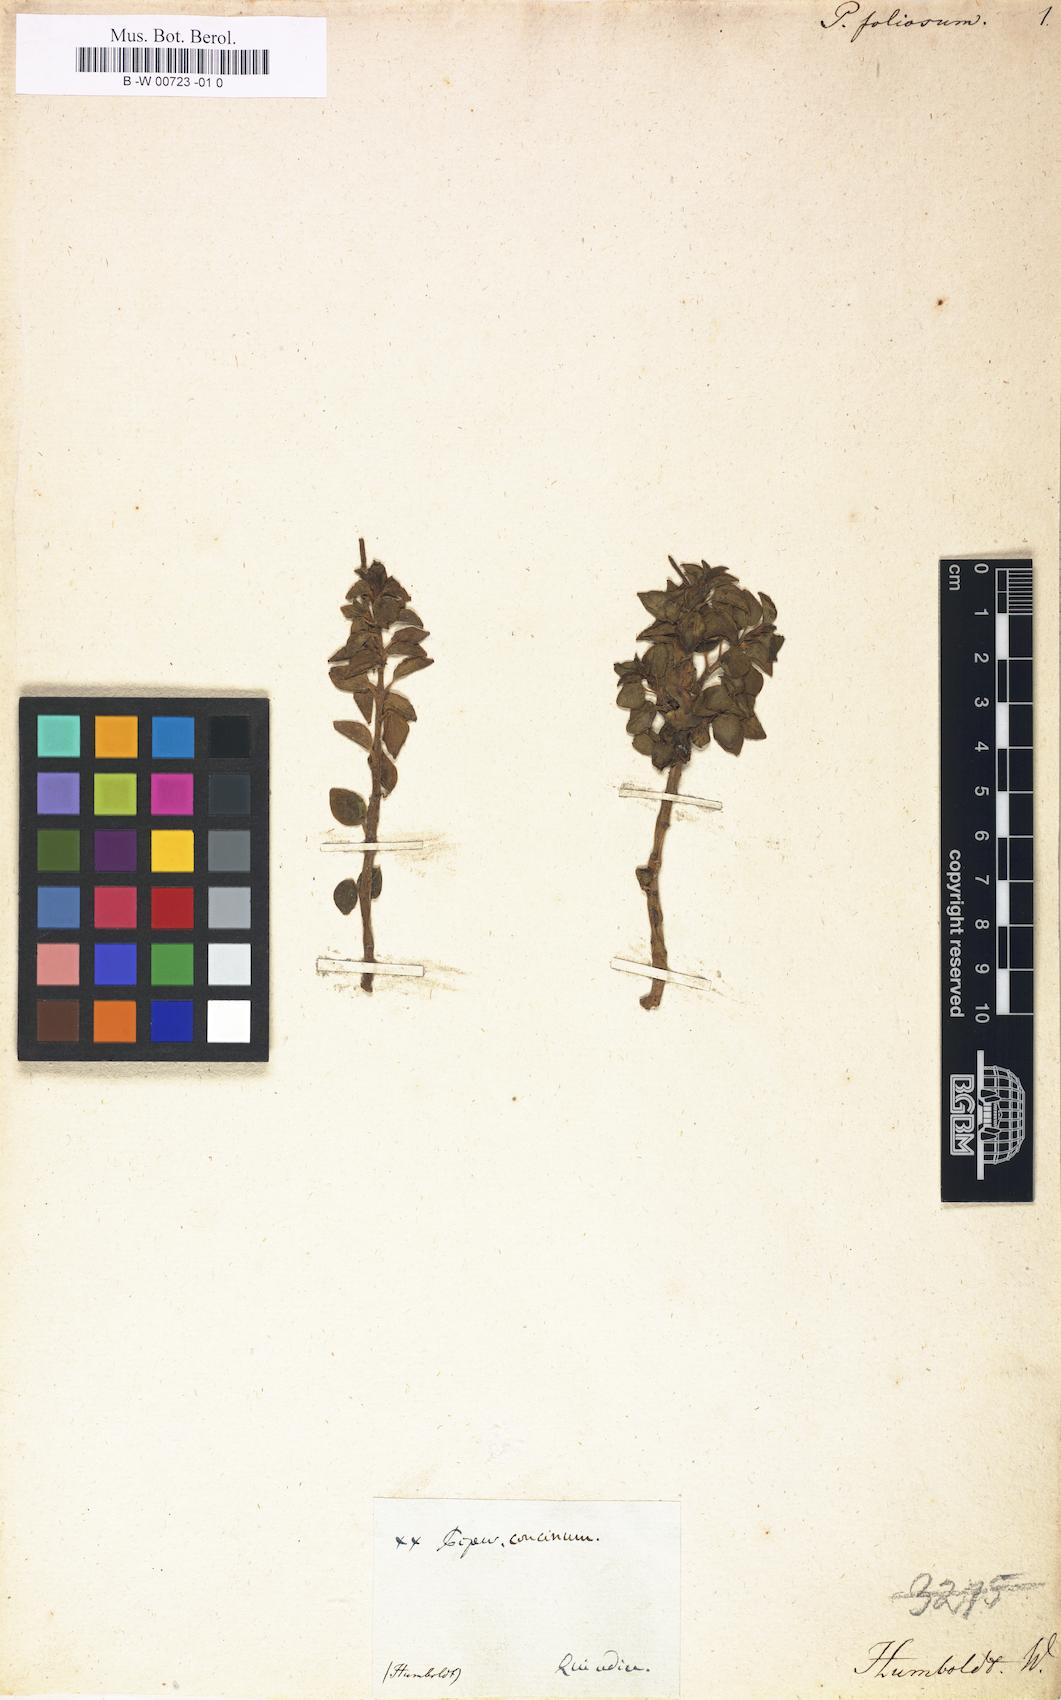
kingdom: Plantae
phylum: Tracheophyta
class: Magnoliopsida
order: Piperales
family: Piperaceae
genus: Peperomia
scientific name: Peperomia foliosa
